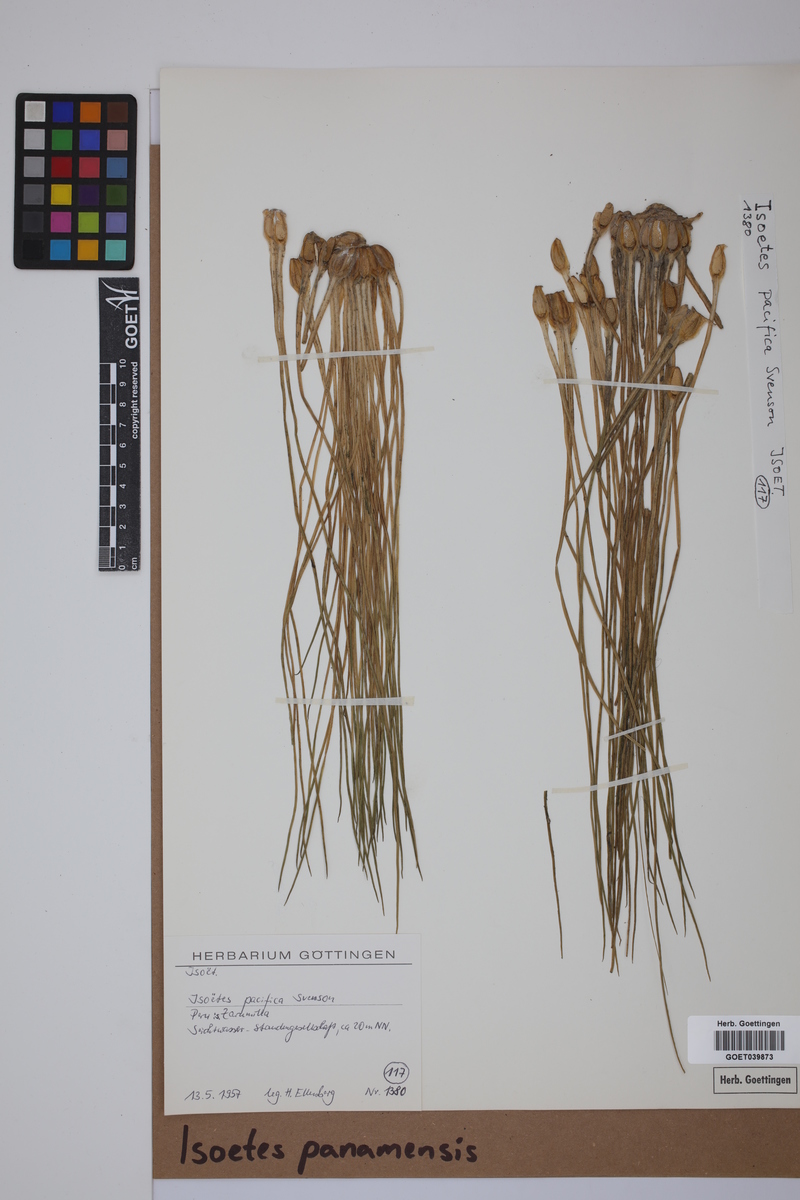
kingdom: Plantae
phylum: Tracheophyta
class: Lycopodiopsida
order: Isoetales
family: Isoetaceae
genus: Isoetes
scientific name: Isoetes panamensis
